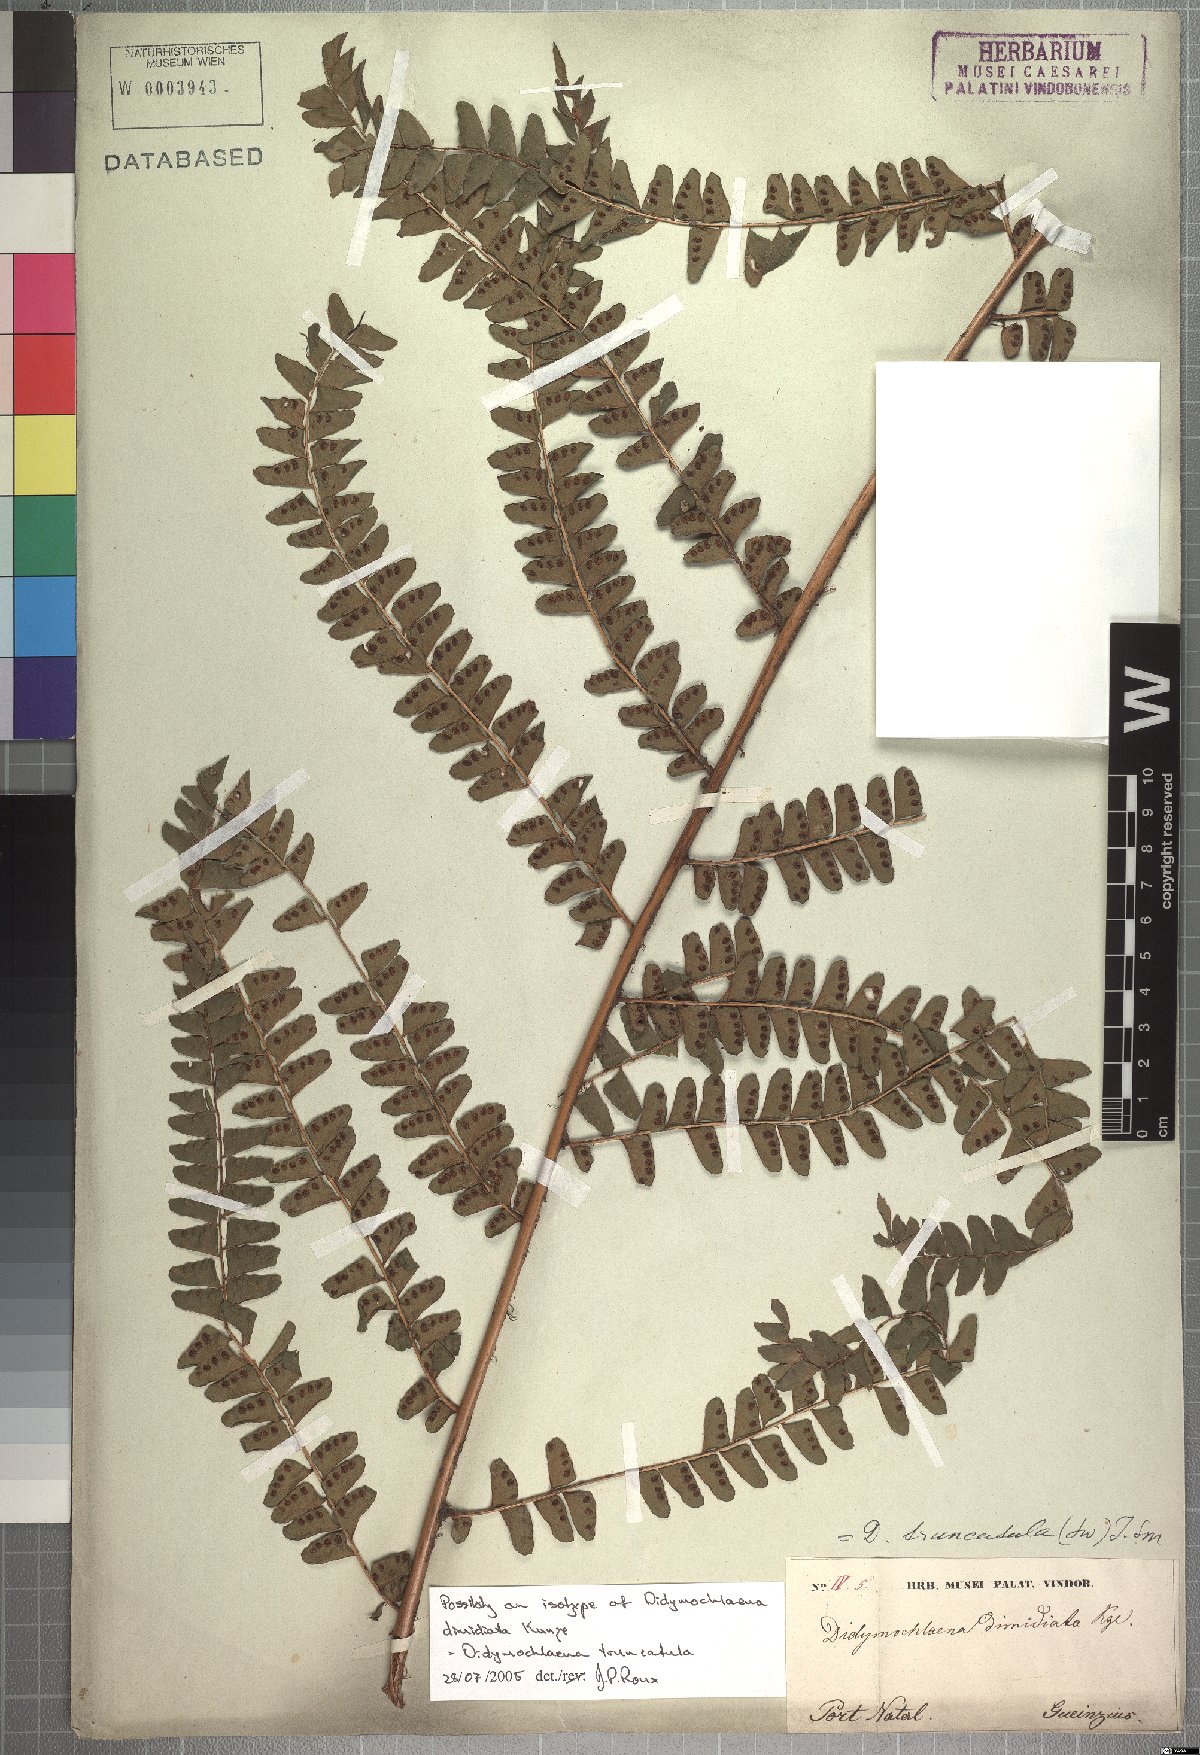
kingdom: Plantae
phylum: Tracheophyta
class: Polypodiopsida
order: Polypodiales
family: Didymochlaenaceae
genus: Didymochlaena
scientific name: Didymochlaena truncatula
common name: Mahogany fern
